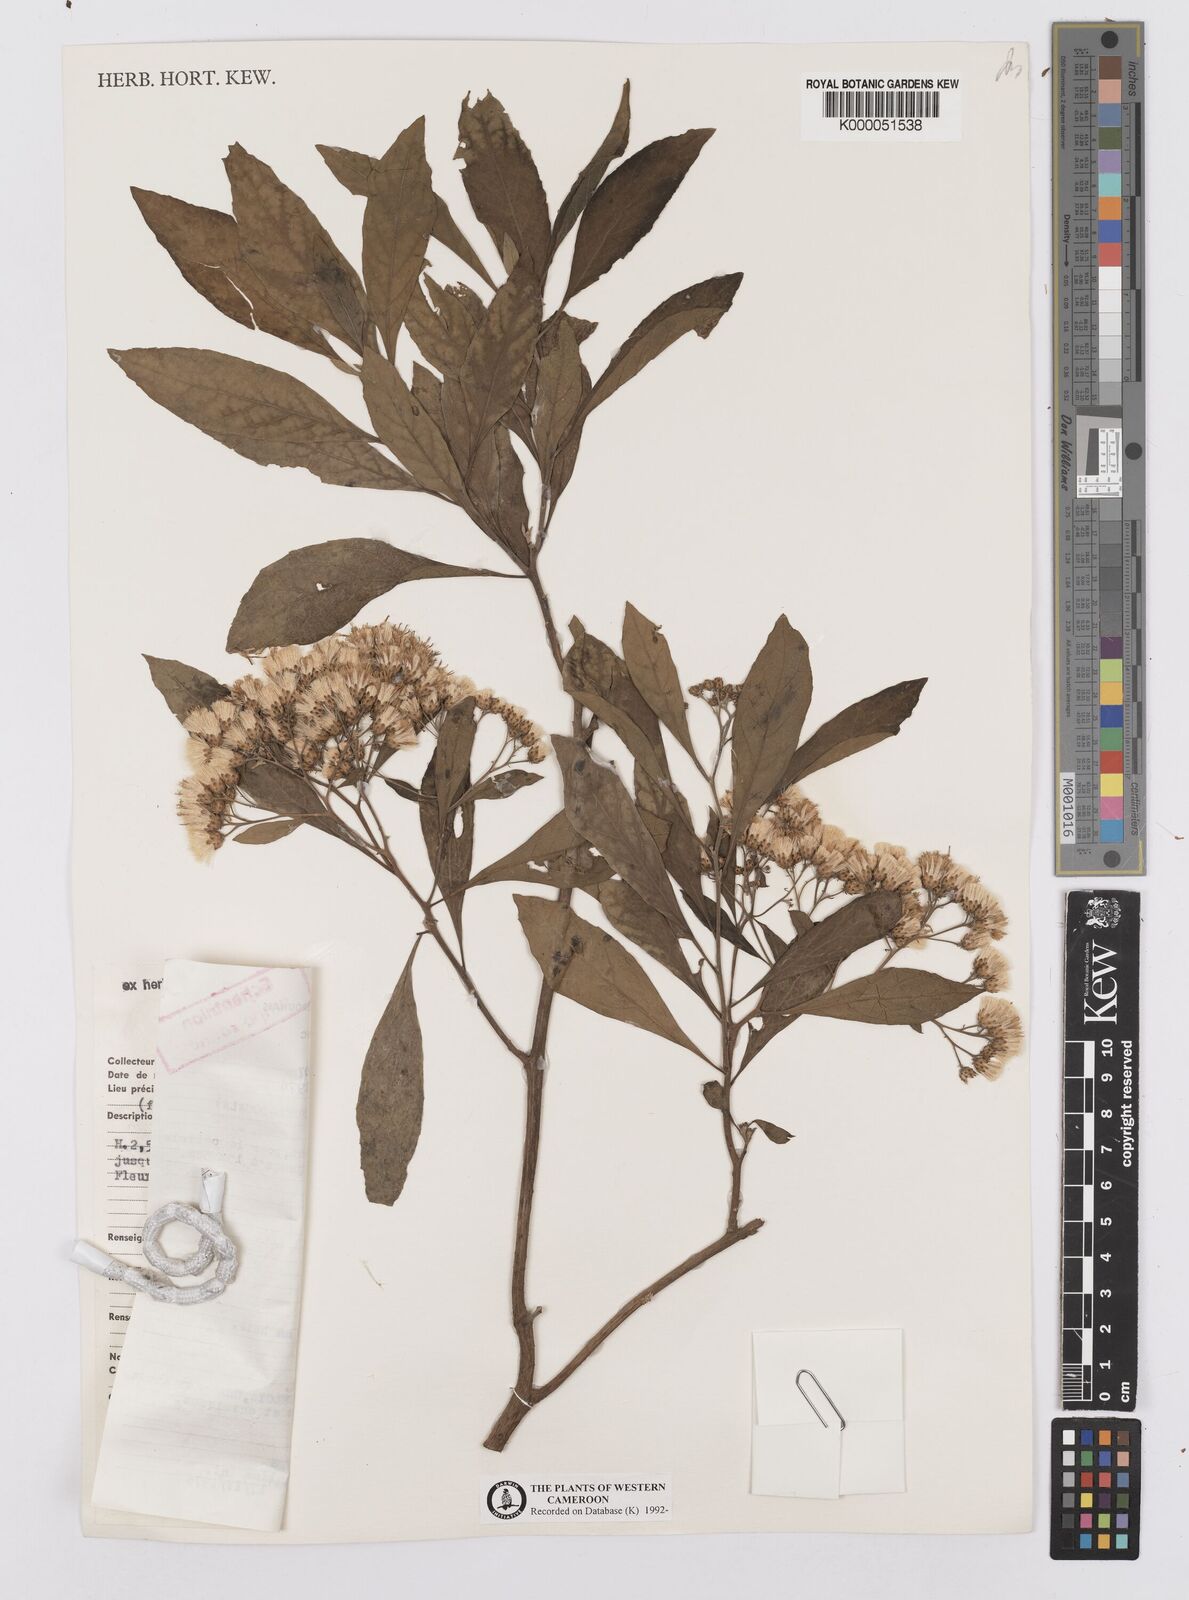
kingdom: Plantae
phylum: Tracheophyta
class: Magnoliopsida
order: Asterales
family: Asteraceae
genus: Gymnanthemum
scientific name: Gymnanthemum amygdalinum
